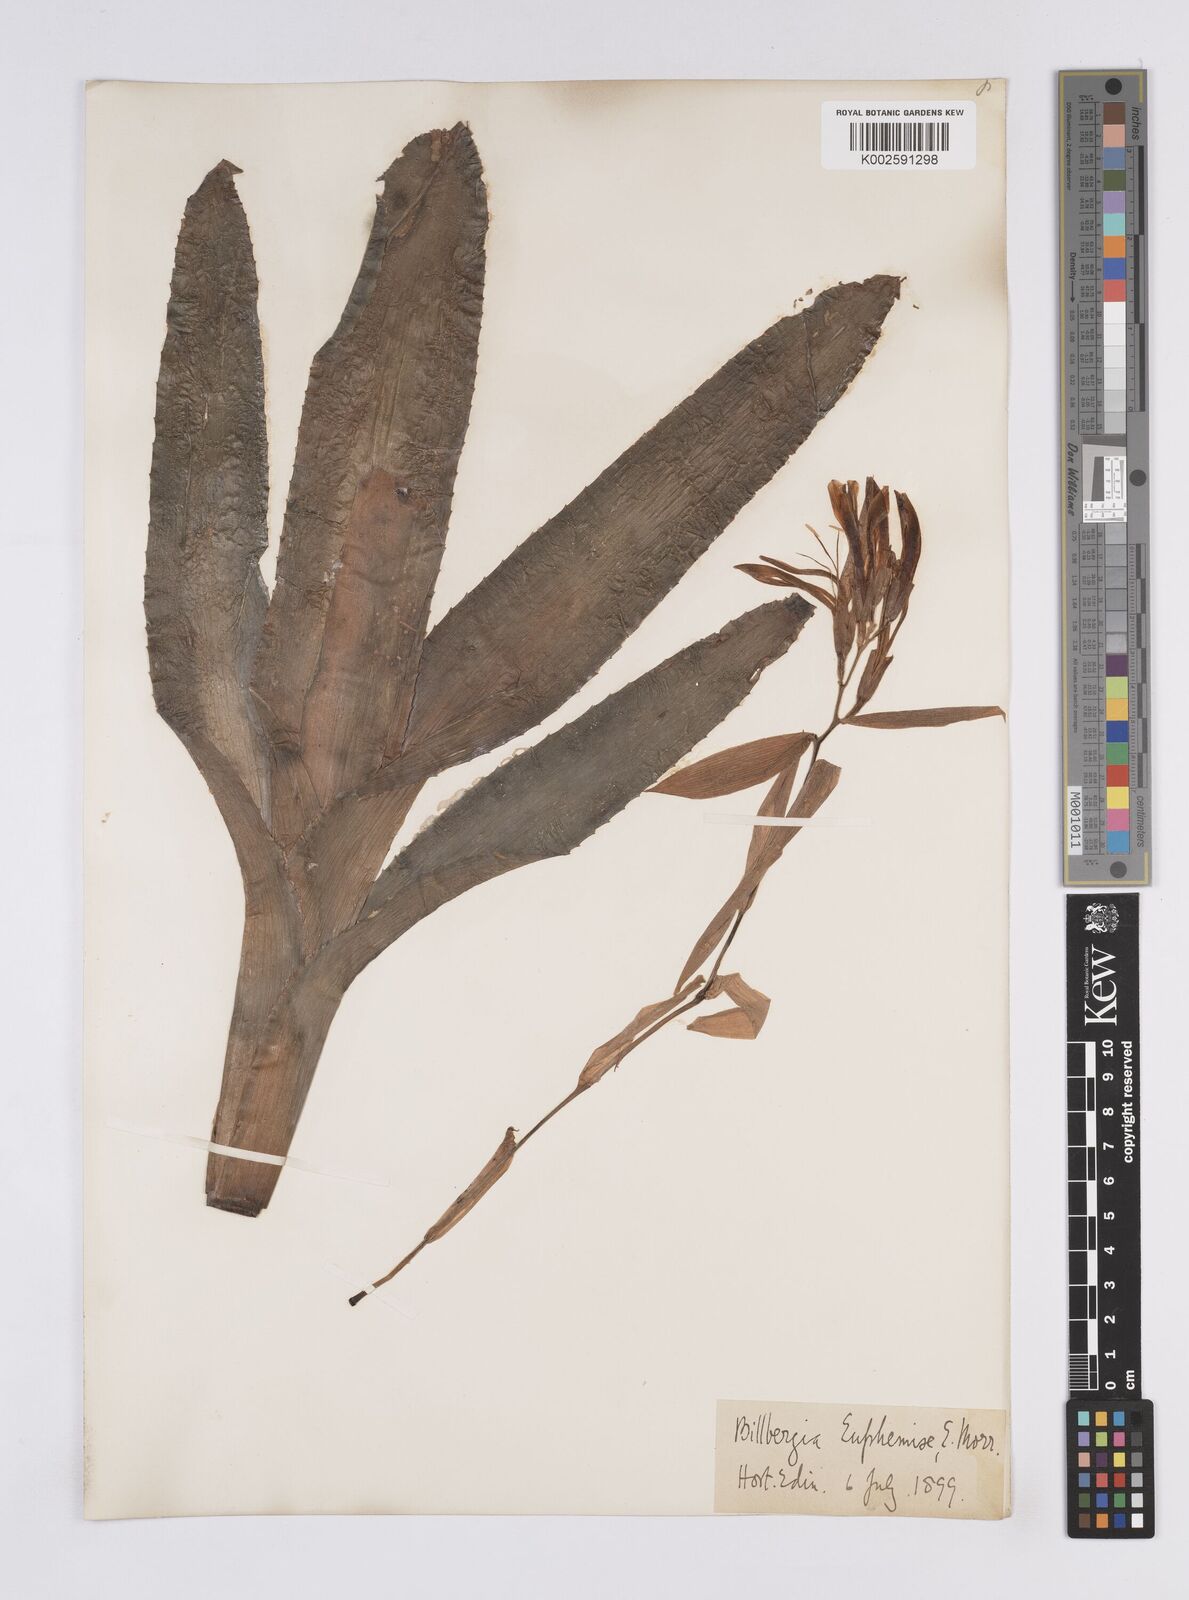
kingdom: Plantae
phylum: Tracheophyta
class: Liliopsida
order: Poales
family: Bromeliaceae
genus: Billbergia
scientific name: Billbergia euphemiae
